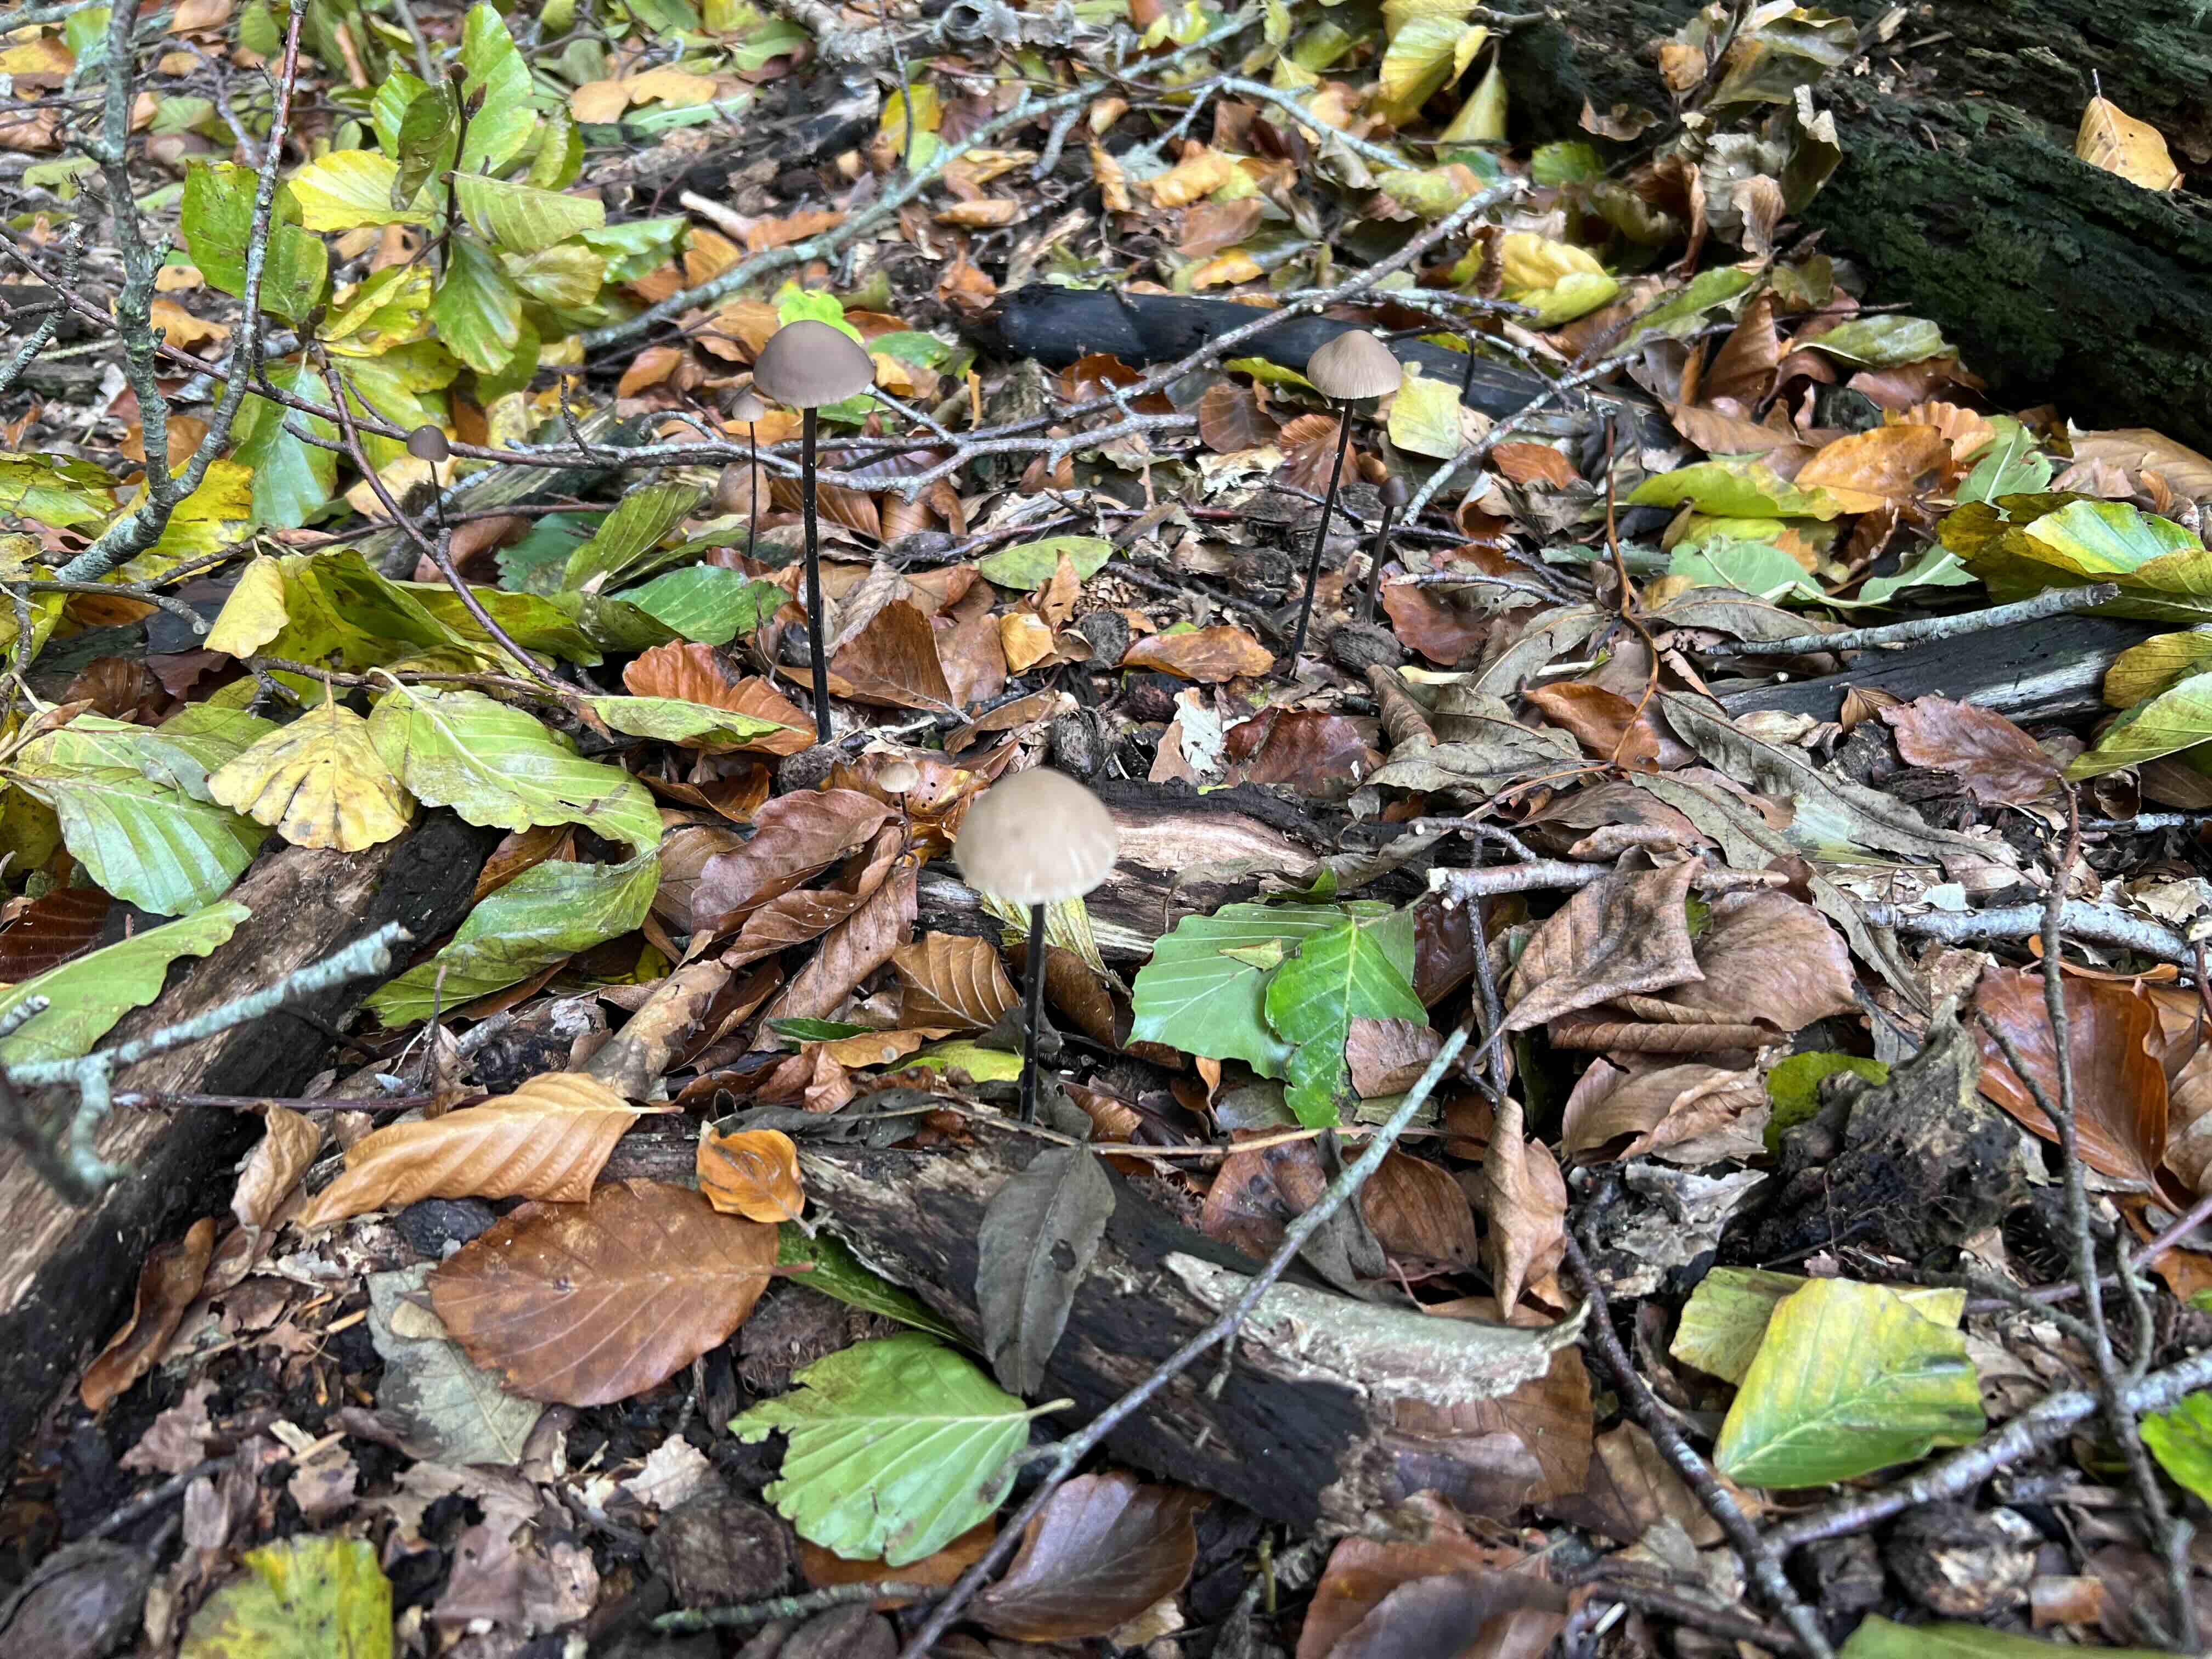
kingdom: Fungi
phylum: Basidiomycota
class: Agaricomycetes
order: Agaricales
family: Omphalotaceae
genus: Mycetinis
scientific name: Mycetinis alliaceus
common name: stor løghat
